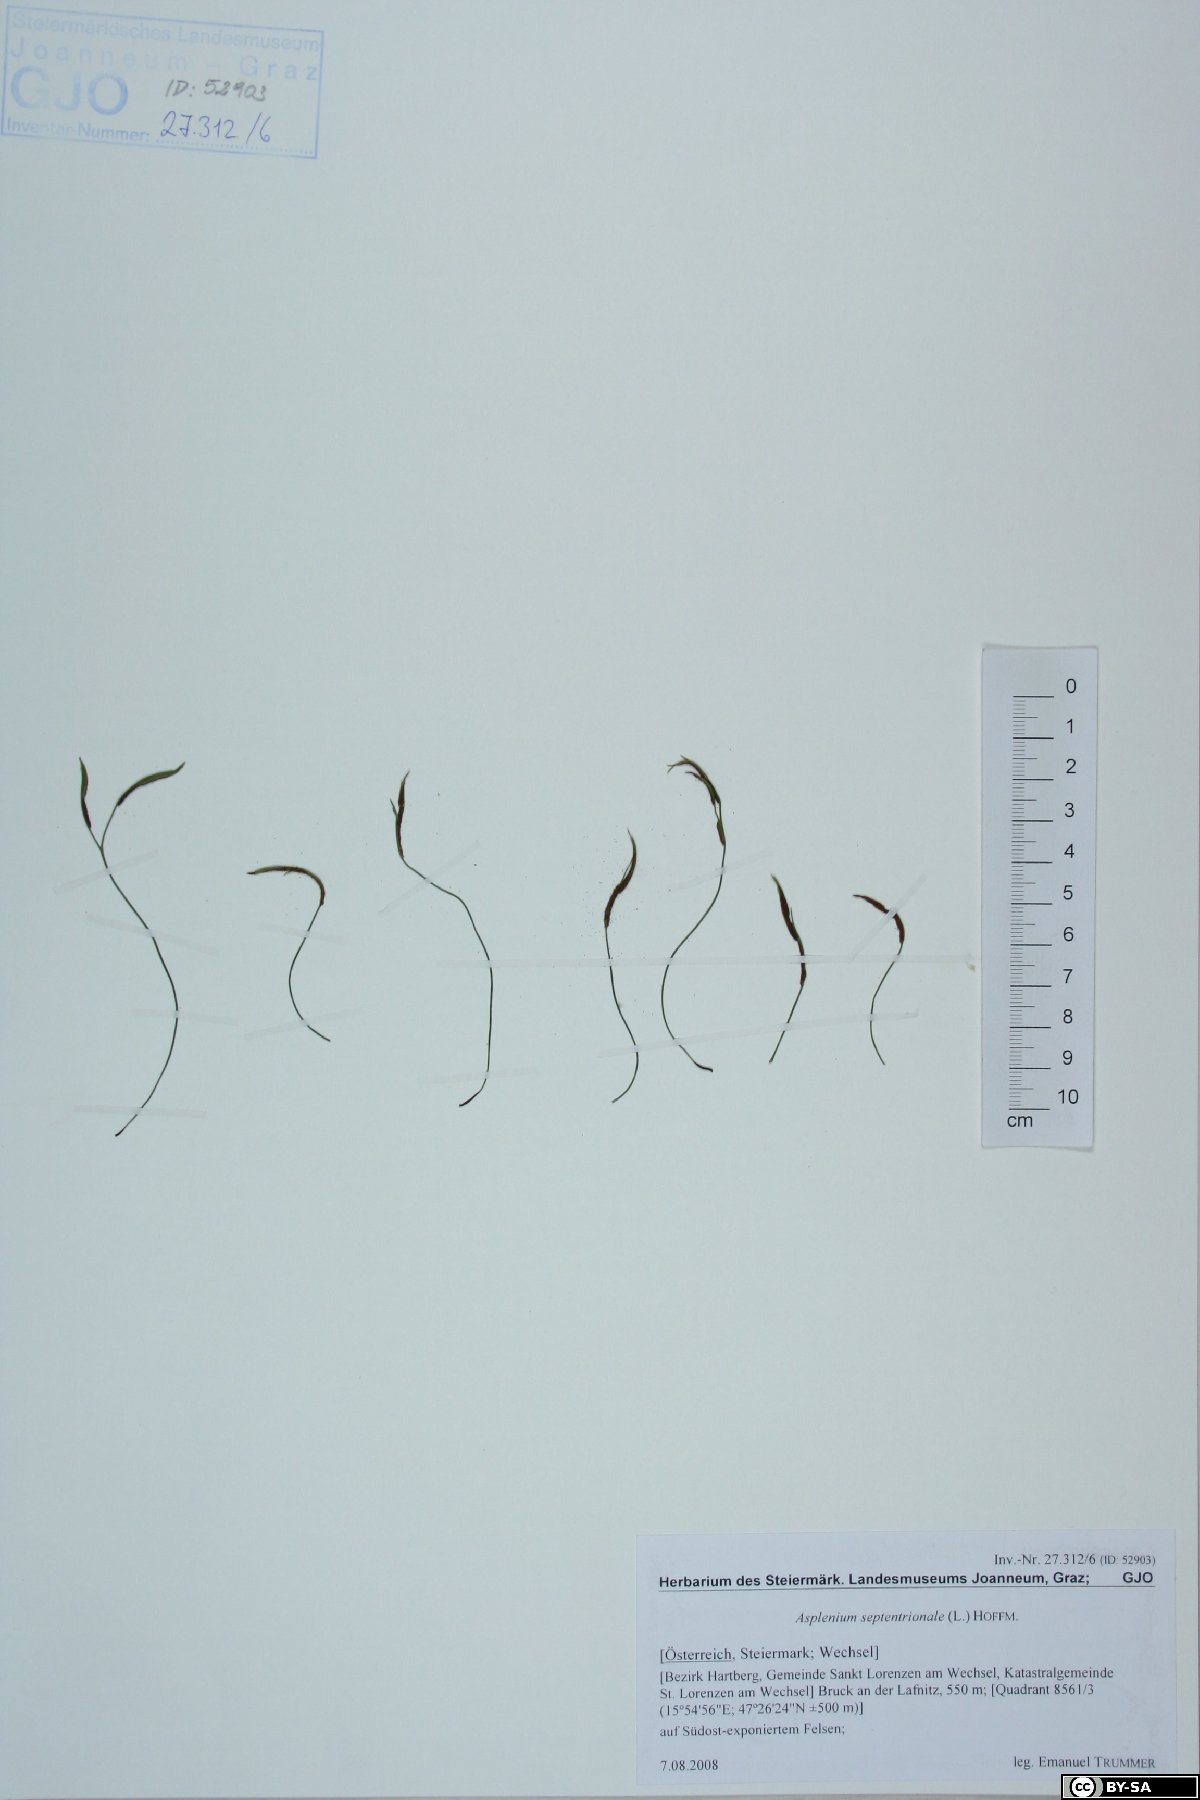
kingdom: Plantae
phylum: Tracheophyta
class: Polypodiopsida
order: Polypodiales
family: Aspleniaceae
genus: Asplenium
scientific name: Asplenium septentrionale
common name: Forked spleenwort
